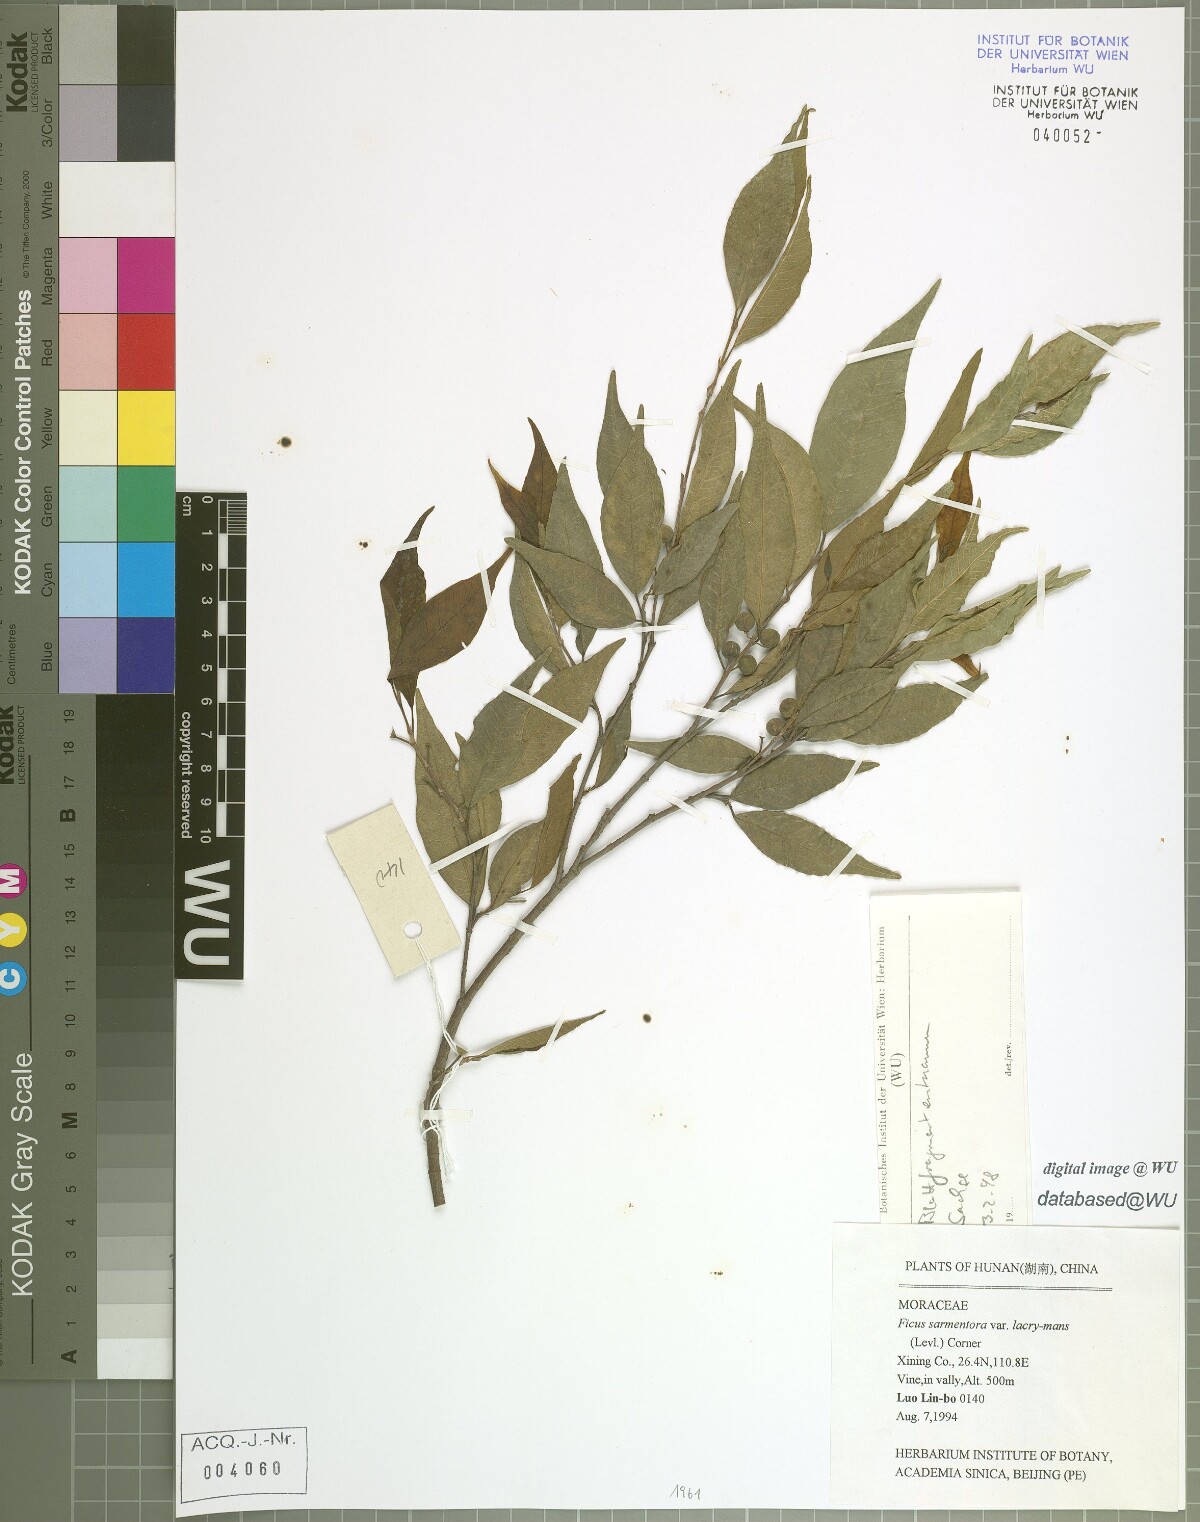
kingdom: Plantae
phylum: Tracheophyta
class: Magnoliopsida
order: Rosales
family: Moraceae
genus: Ficus
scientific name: Ficus sarmentosa
